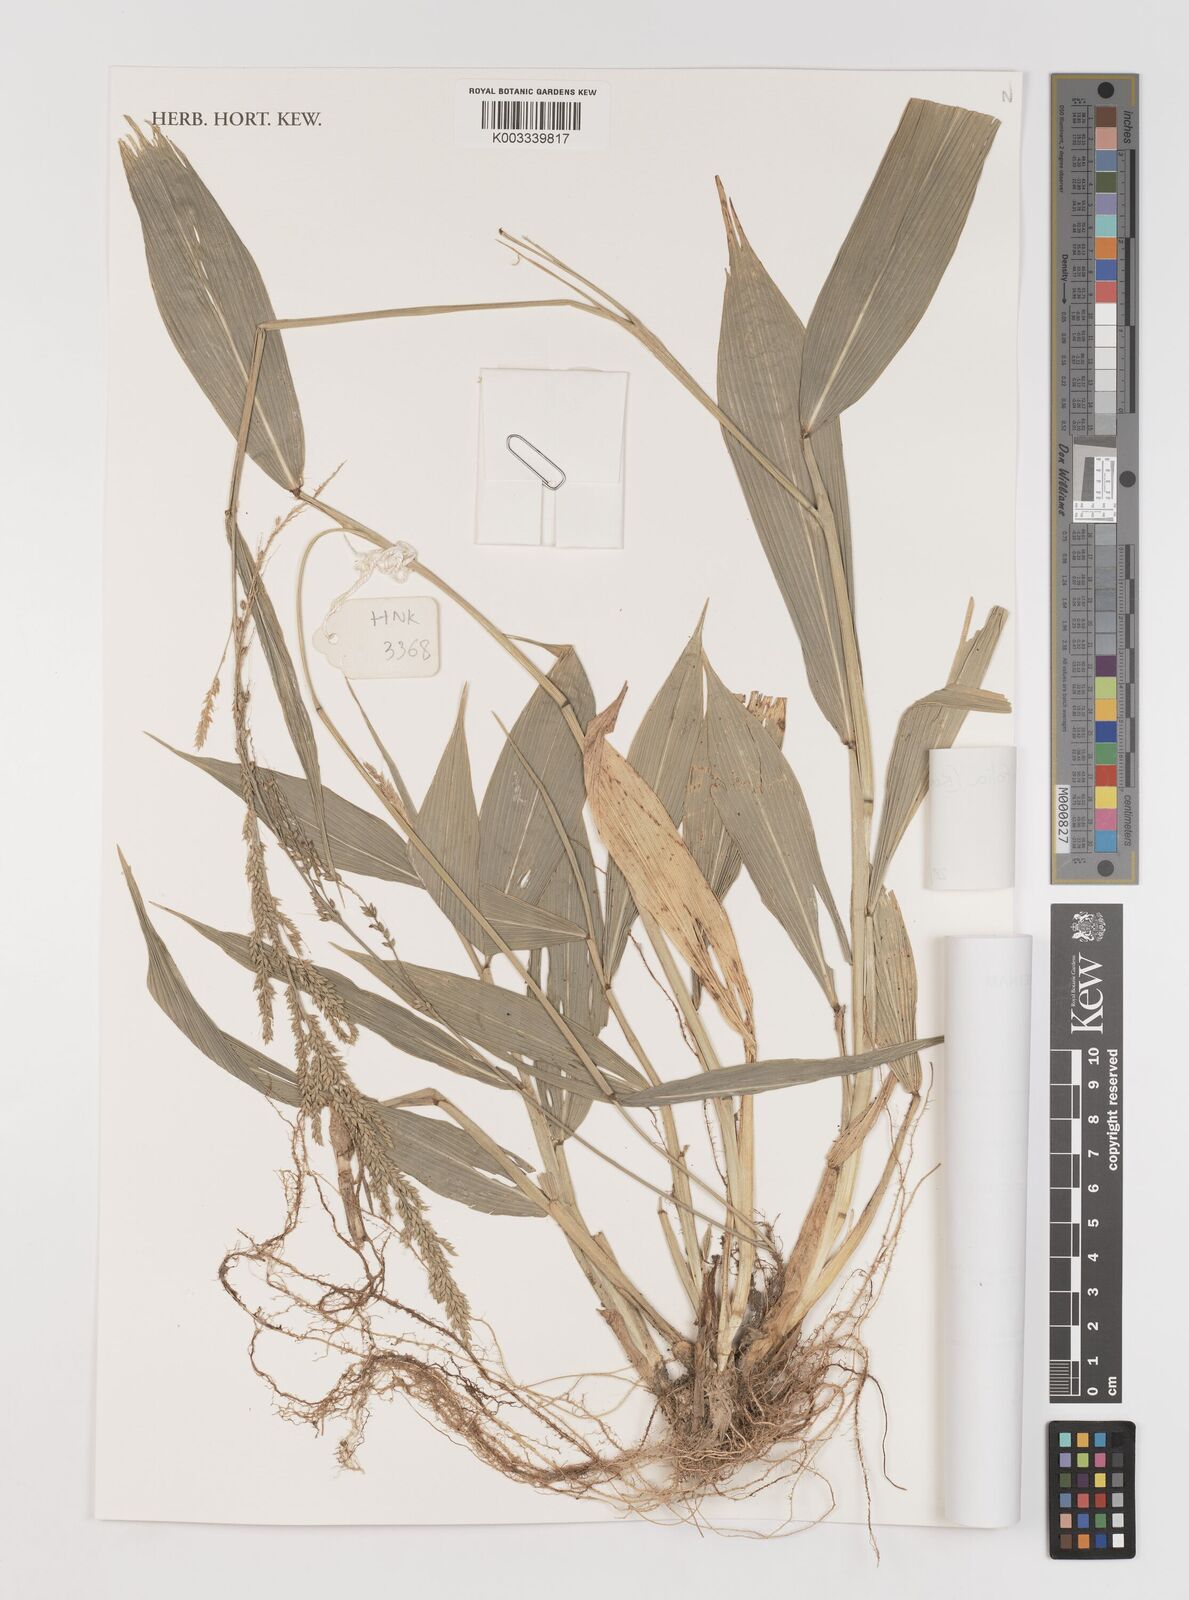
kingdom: Plantae
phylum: Tracheophyta
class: Liliopsida
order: Poales
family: Poaceae
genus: Setaria
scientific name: Setaria palmifolia
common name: Broadleaved bristlegrass
